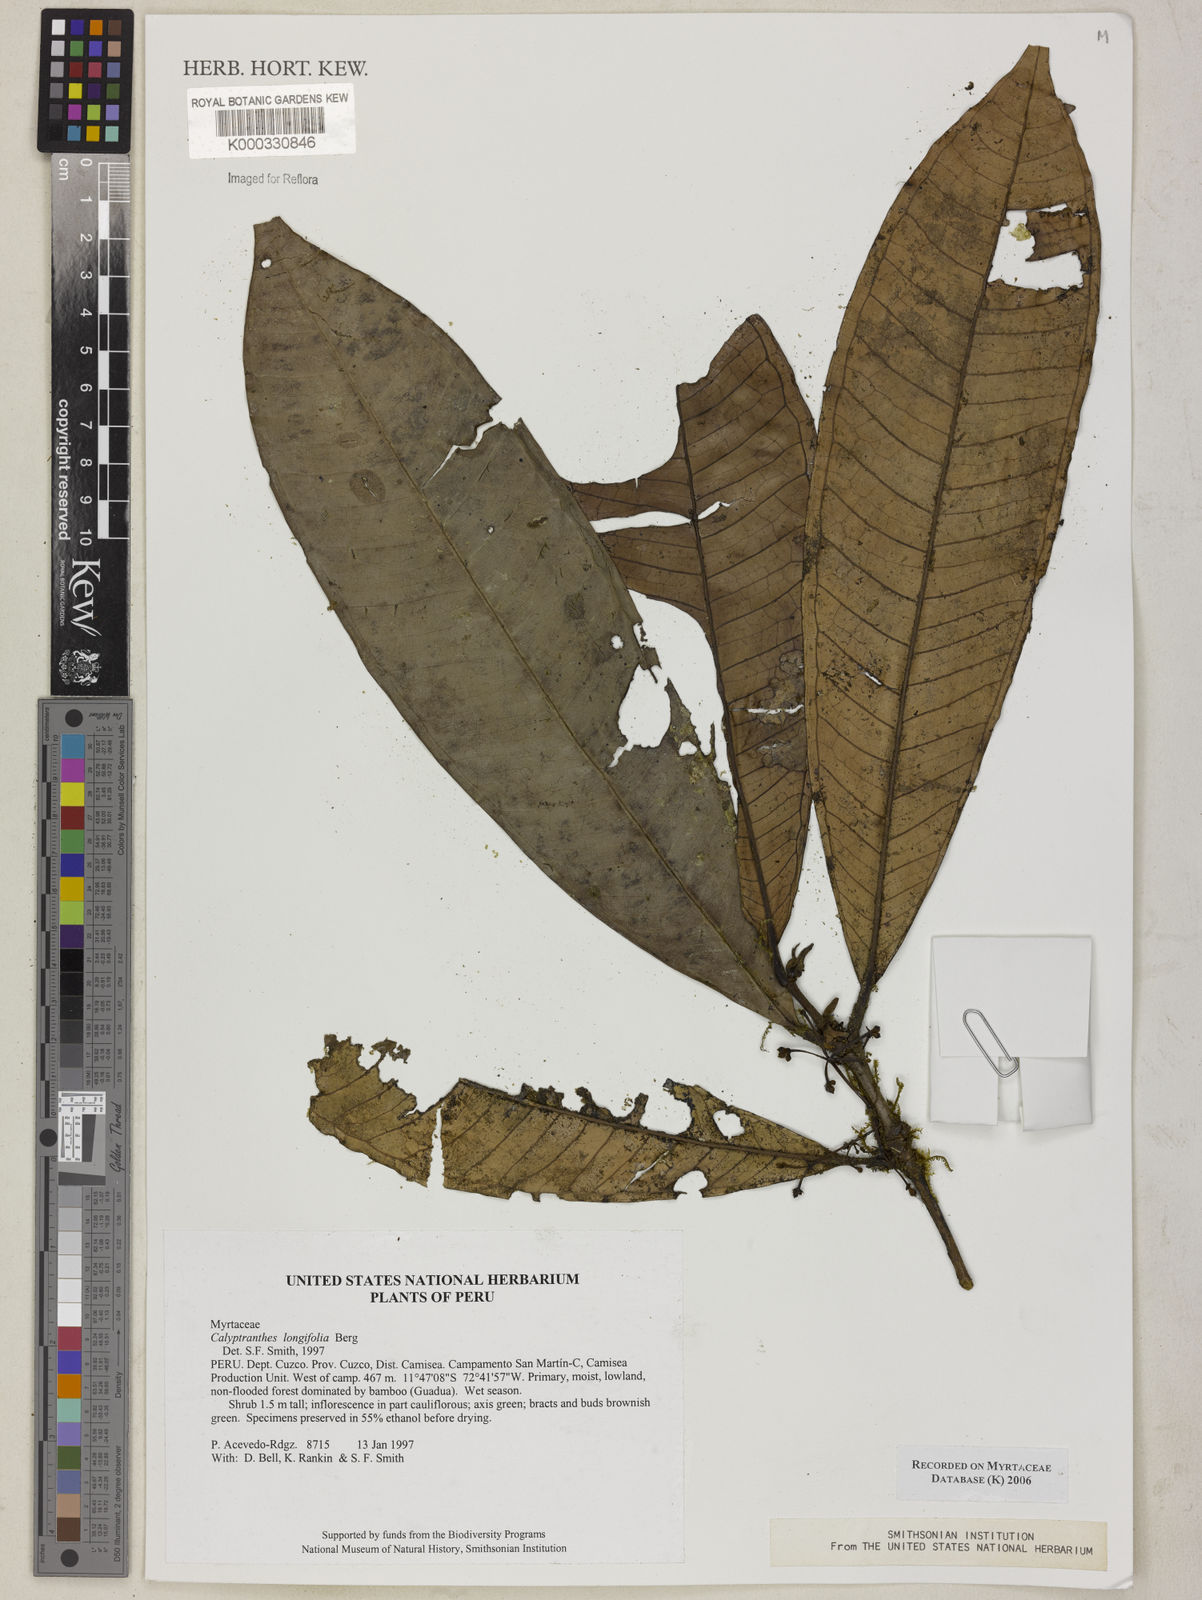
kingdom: Plantae
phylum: Tracheophyta
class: Magnoliopsida
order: Myrtales
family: Myrtaceae
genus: Myrcia
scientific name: Myrcia telephylla
